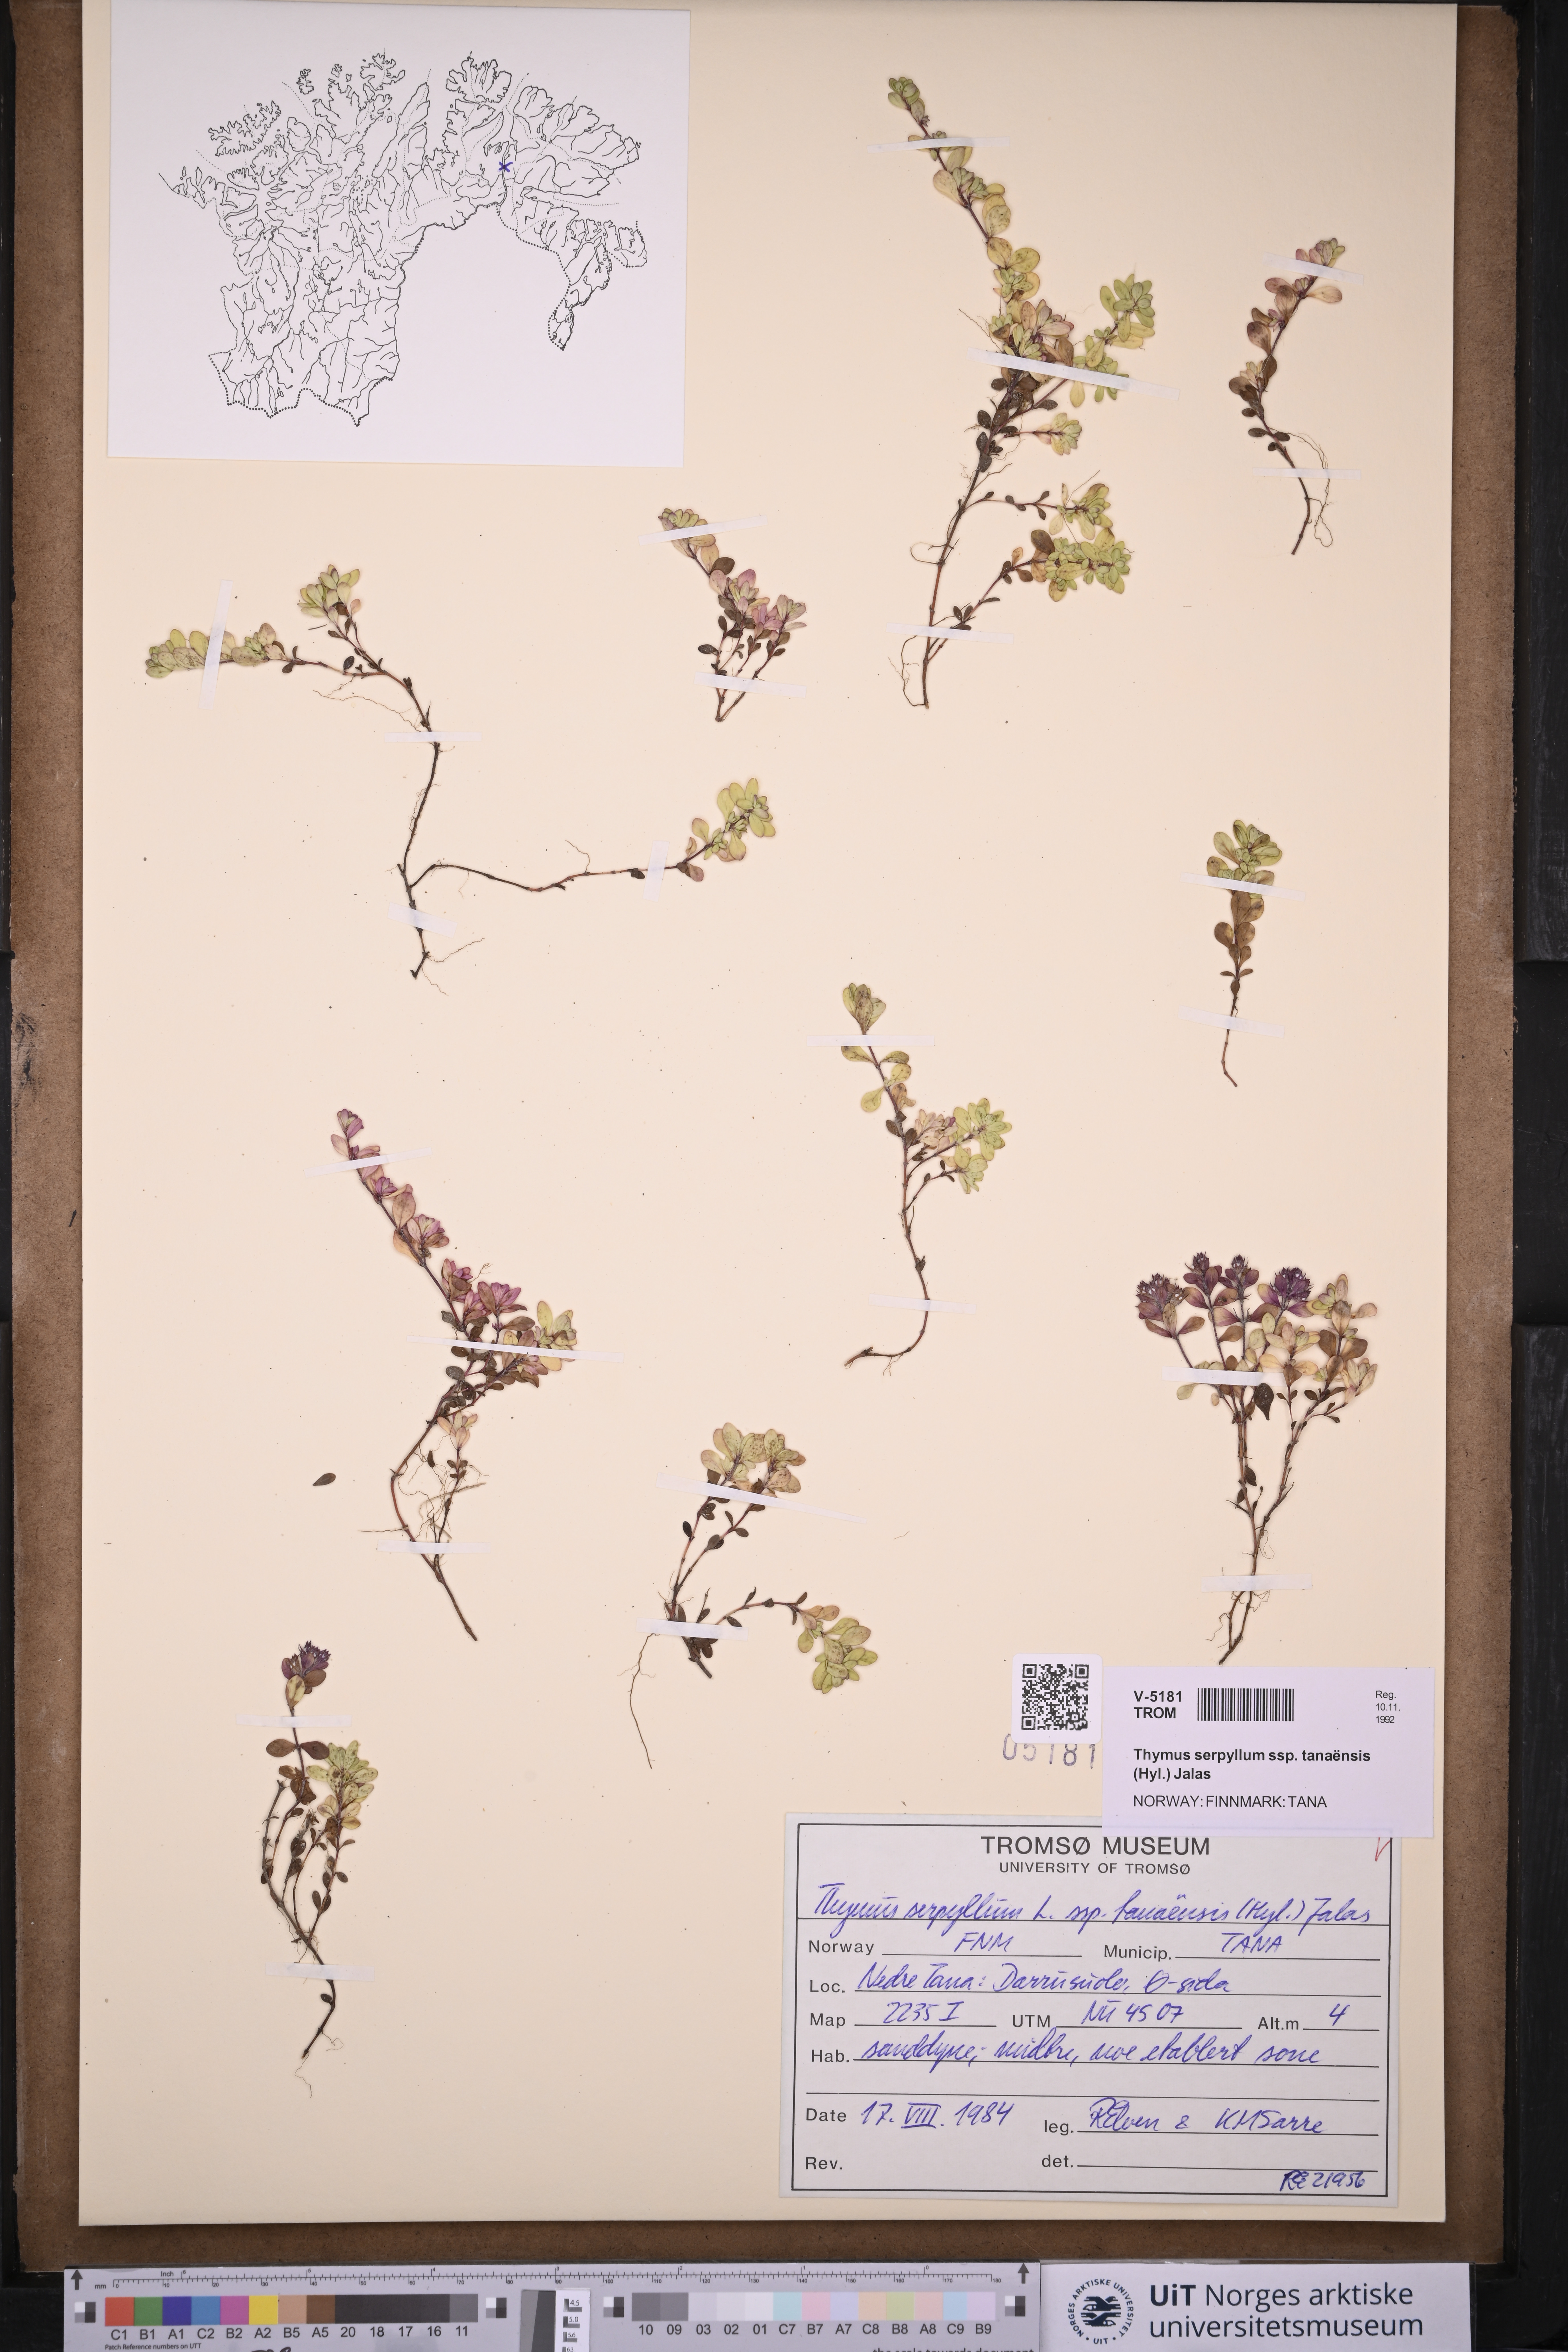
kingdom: Plantae
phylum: Tracheophyta
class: Magnoliopsida
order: Lamiales
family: Lamiaceae
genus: Thymus
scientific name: Thymus serpyllum
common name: Breckland thyme
